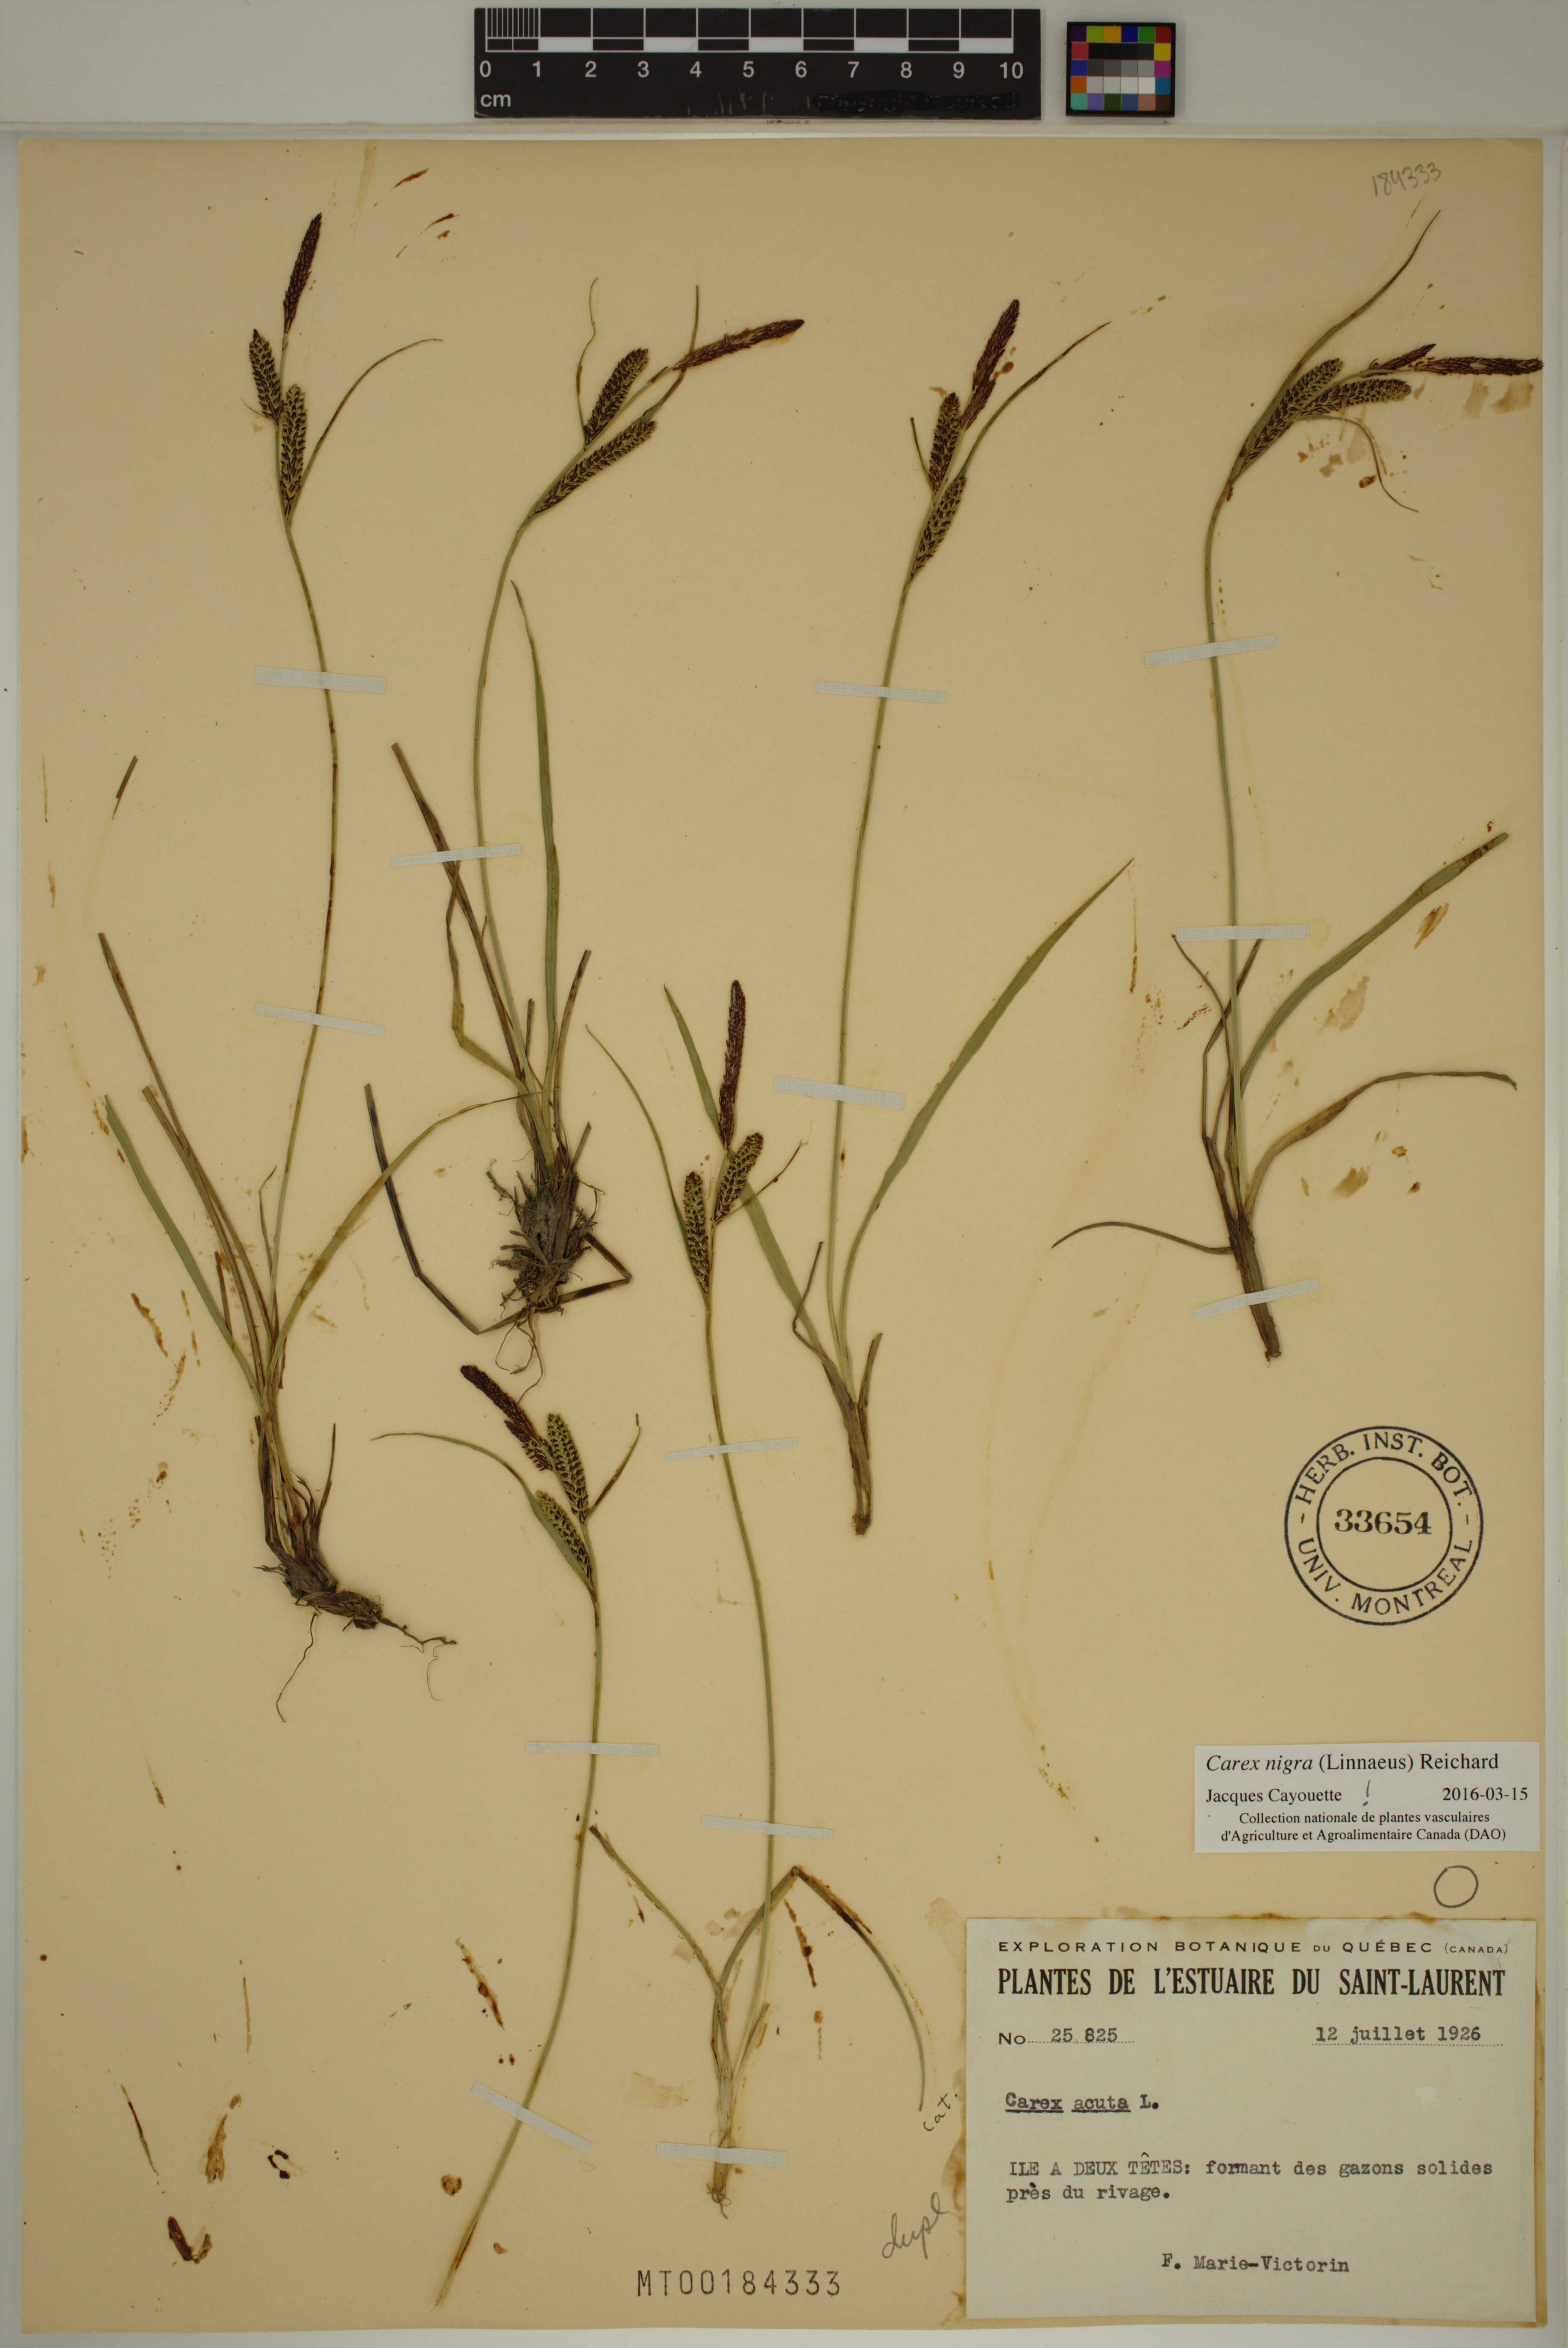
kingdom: Plantae
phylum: Tracheophyta
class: Liliopsida
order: Poales
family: Cyperaceae
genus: Carex
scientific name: Carex nigra
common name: Common sedge
